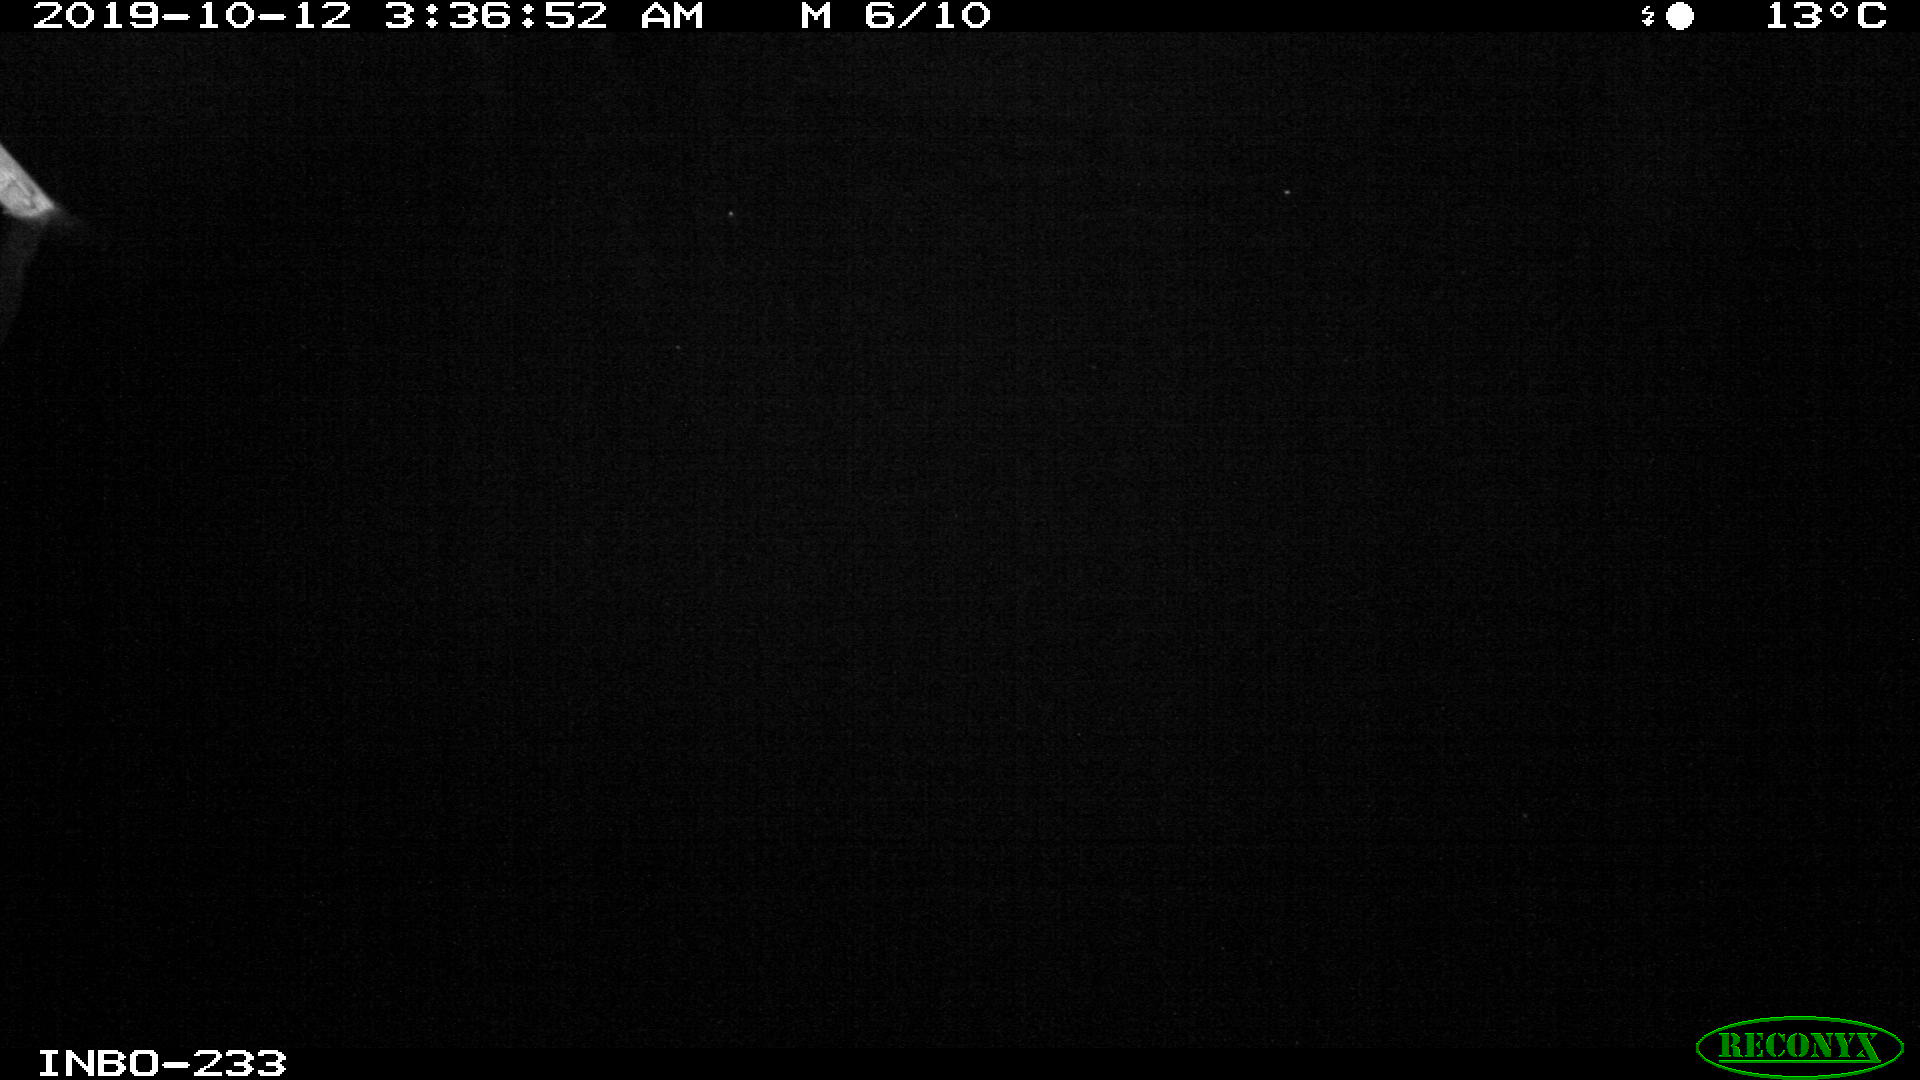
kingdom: Animalia
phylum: Chordata
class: Aves
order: Anseriformes
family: Anatidae
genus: Anas
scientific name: Anas platyrhynchos
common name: Mallard
